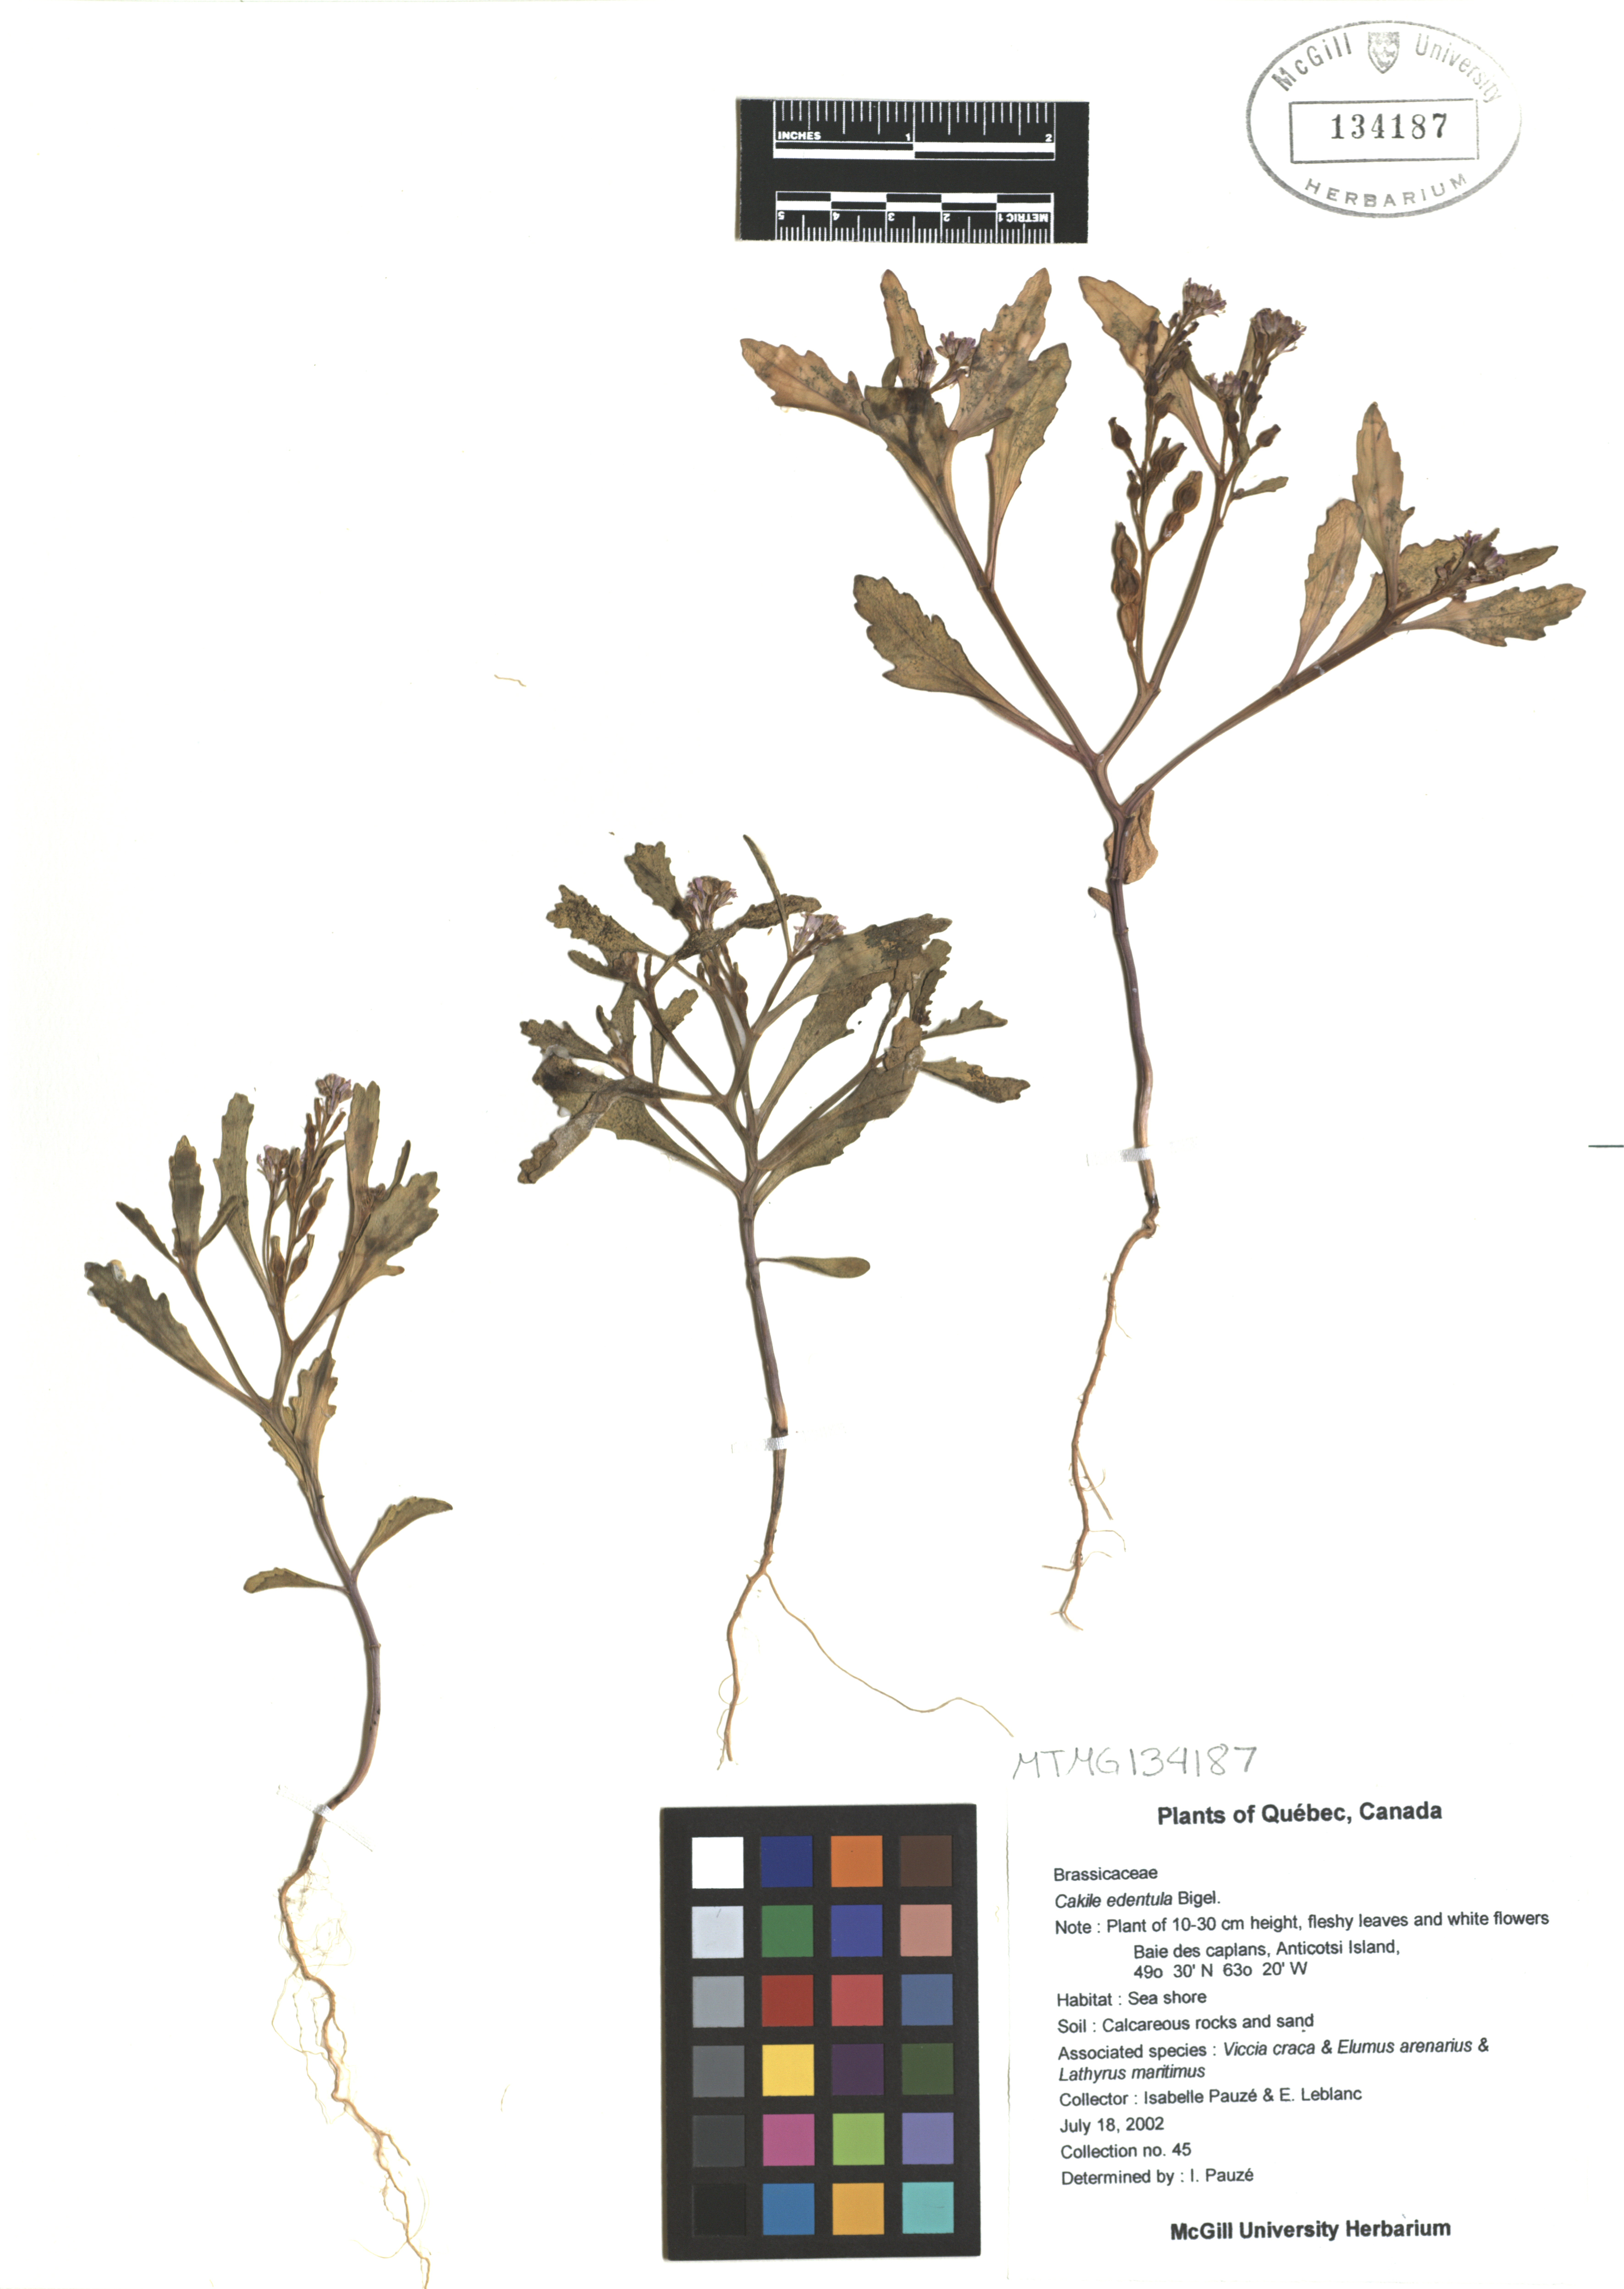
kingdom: Plantae
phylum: Tracheophyta
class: Magnoliopsida
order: Brassicales
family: Brassicaceae
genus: Cakile
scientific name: Cakile edentula
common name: American sea rocket
